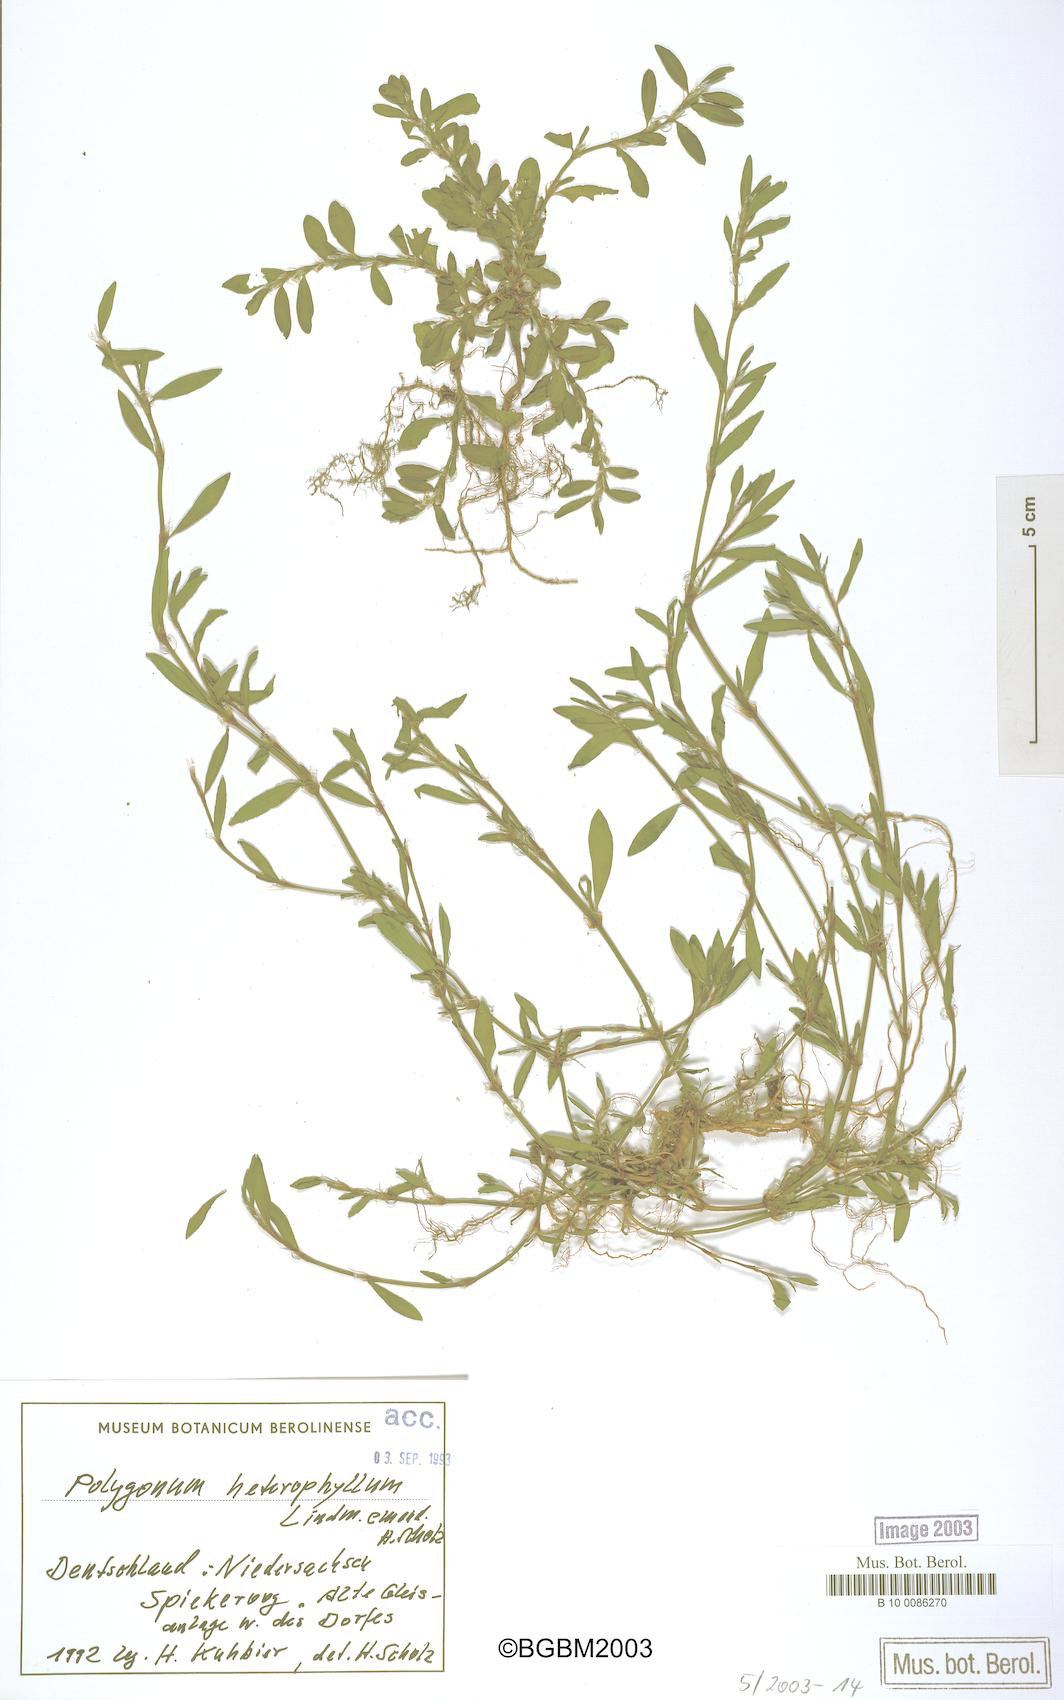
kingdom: Plantae
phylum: Tracheophyta
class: Magnoliopsida
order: Caryophyllales
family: Polygonaceae
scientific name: Polygonaceae
